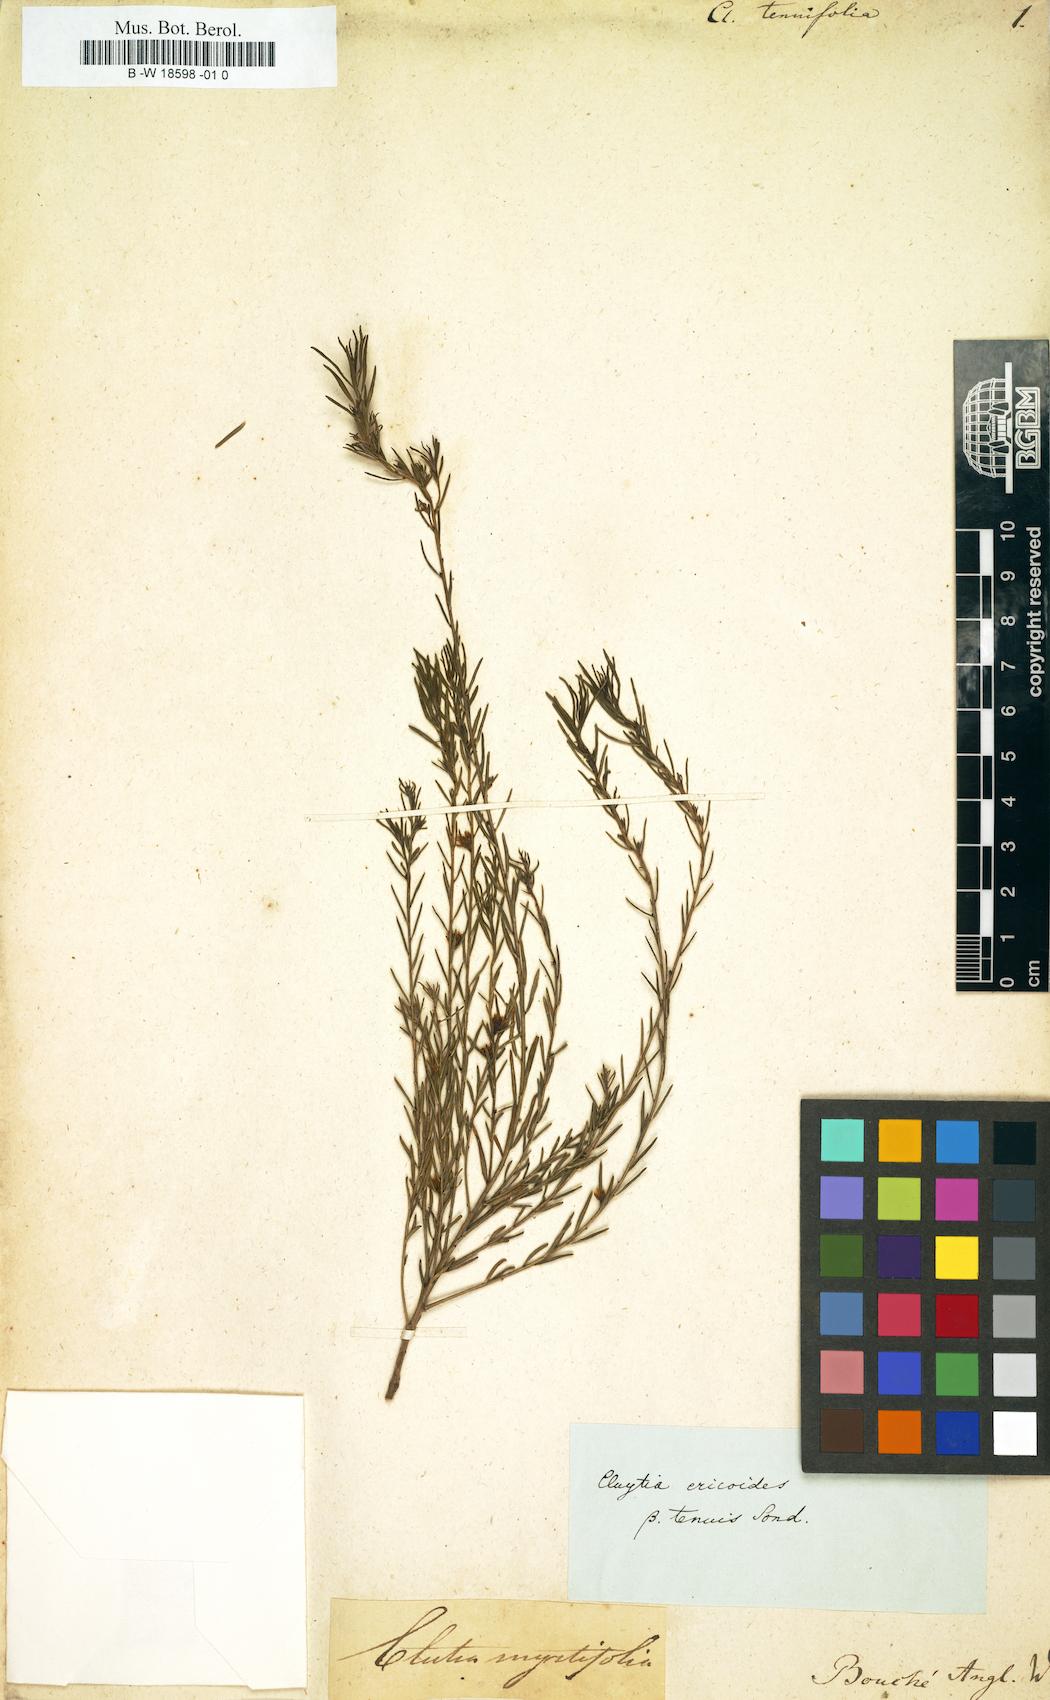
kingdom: Plantae
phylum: Tracheophyta
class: Magnoliopsida
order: Malpighiales
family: Peraceae
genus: Clutia
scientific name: Clutia
